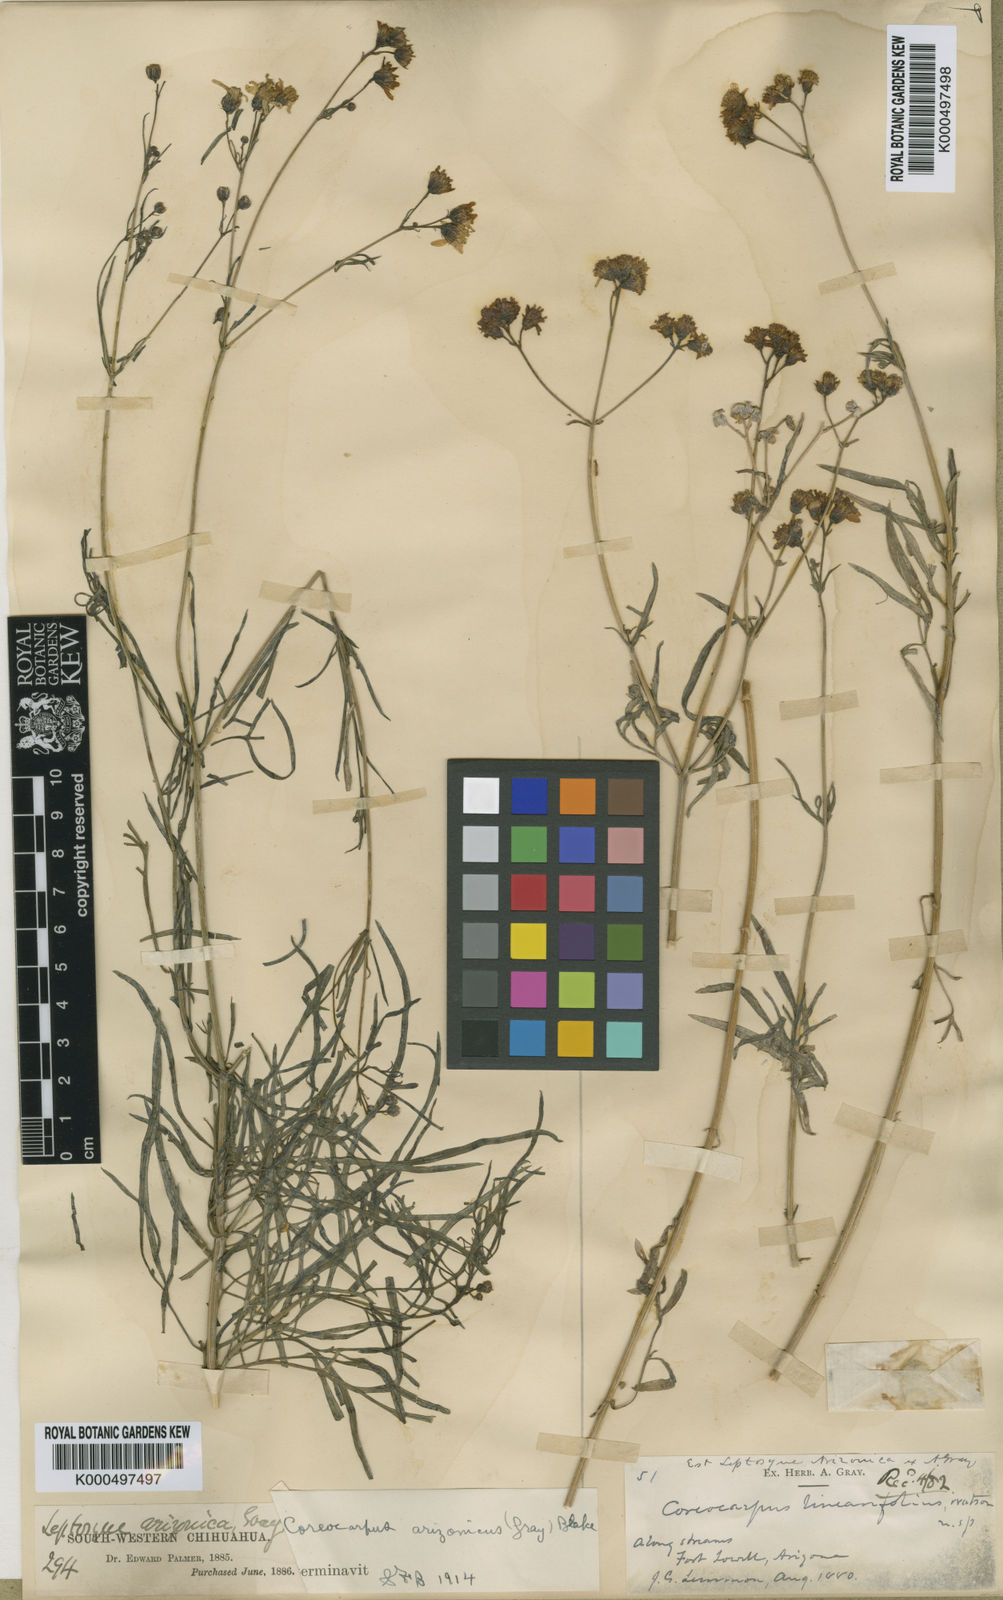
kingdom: Plantae
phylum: Tracheophyta
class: Magnoliopsida
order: Asterales
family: Asteraceae
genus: Coreocarpus
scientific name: Coreocarpus arizonicus
